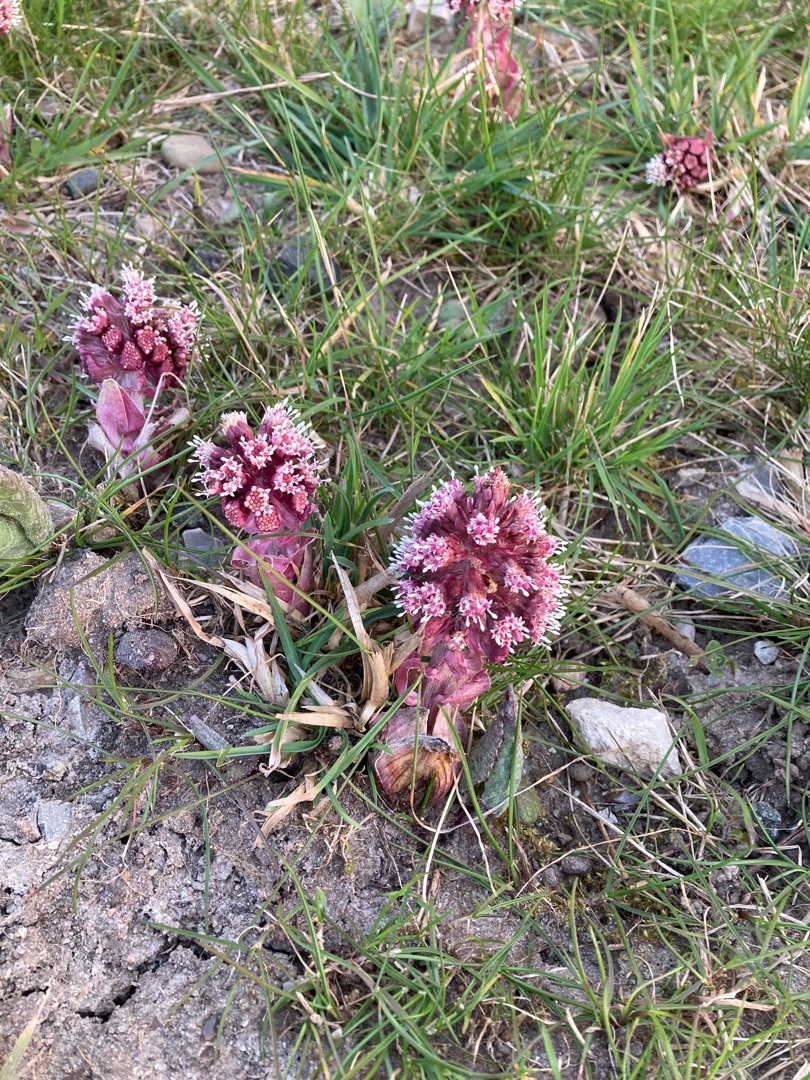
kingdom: Plantae
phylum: Tracheophyta
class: Magnoliopsida
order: Asterales
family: Asteraceae
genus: Petasites
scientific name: Petasites hybridus
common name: Rød hestehov
